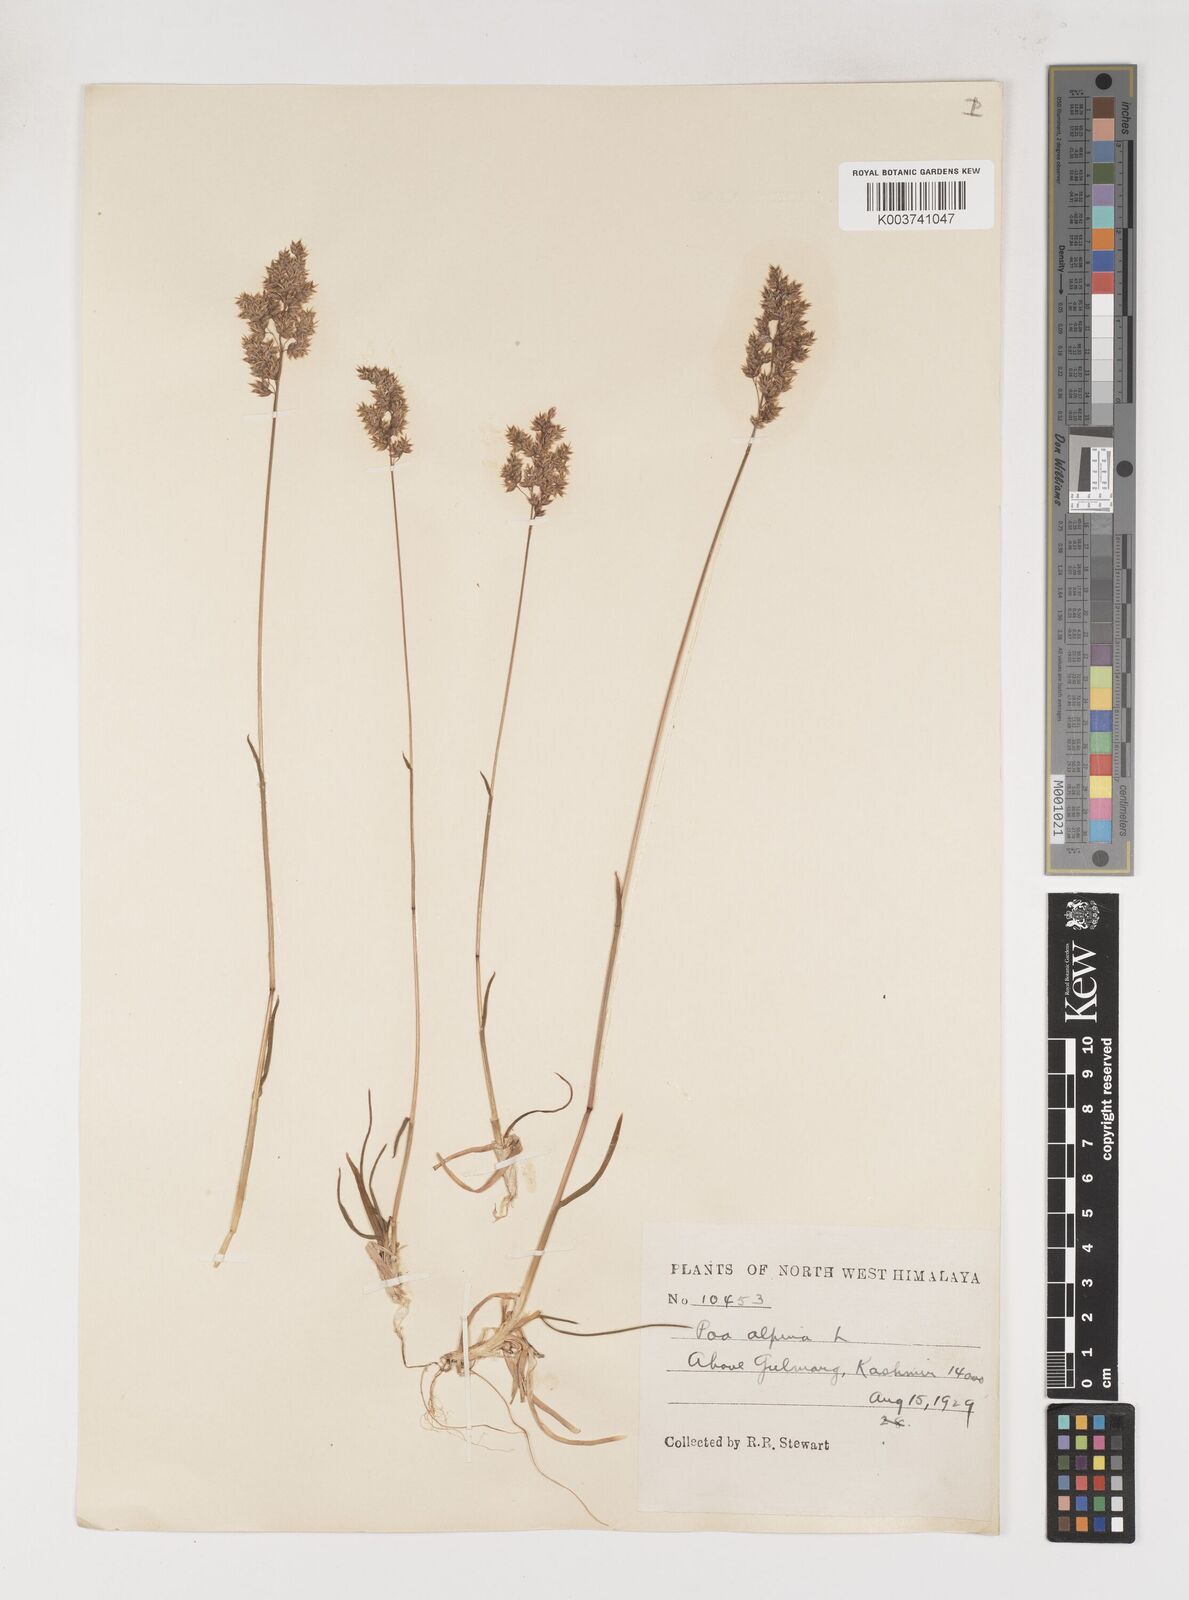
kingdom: Plantae
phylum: Tracheophyta
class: Liliopsida
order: Poales
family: Poaceae
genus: Poa
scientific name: Poa alpina
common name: Alpine bluegrass
